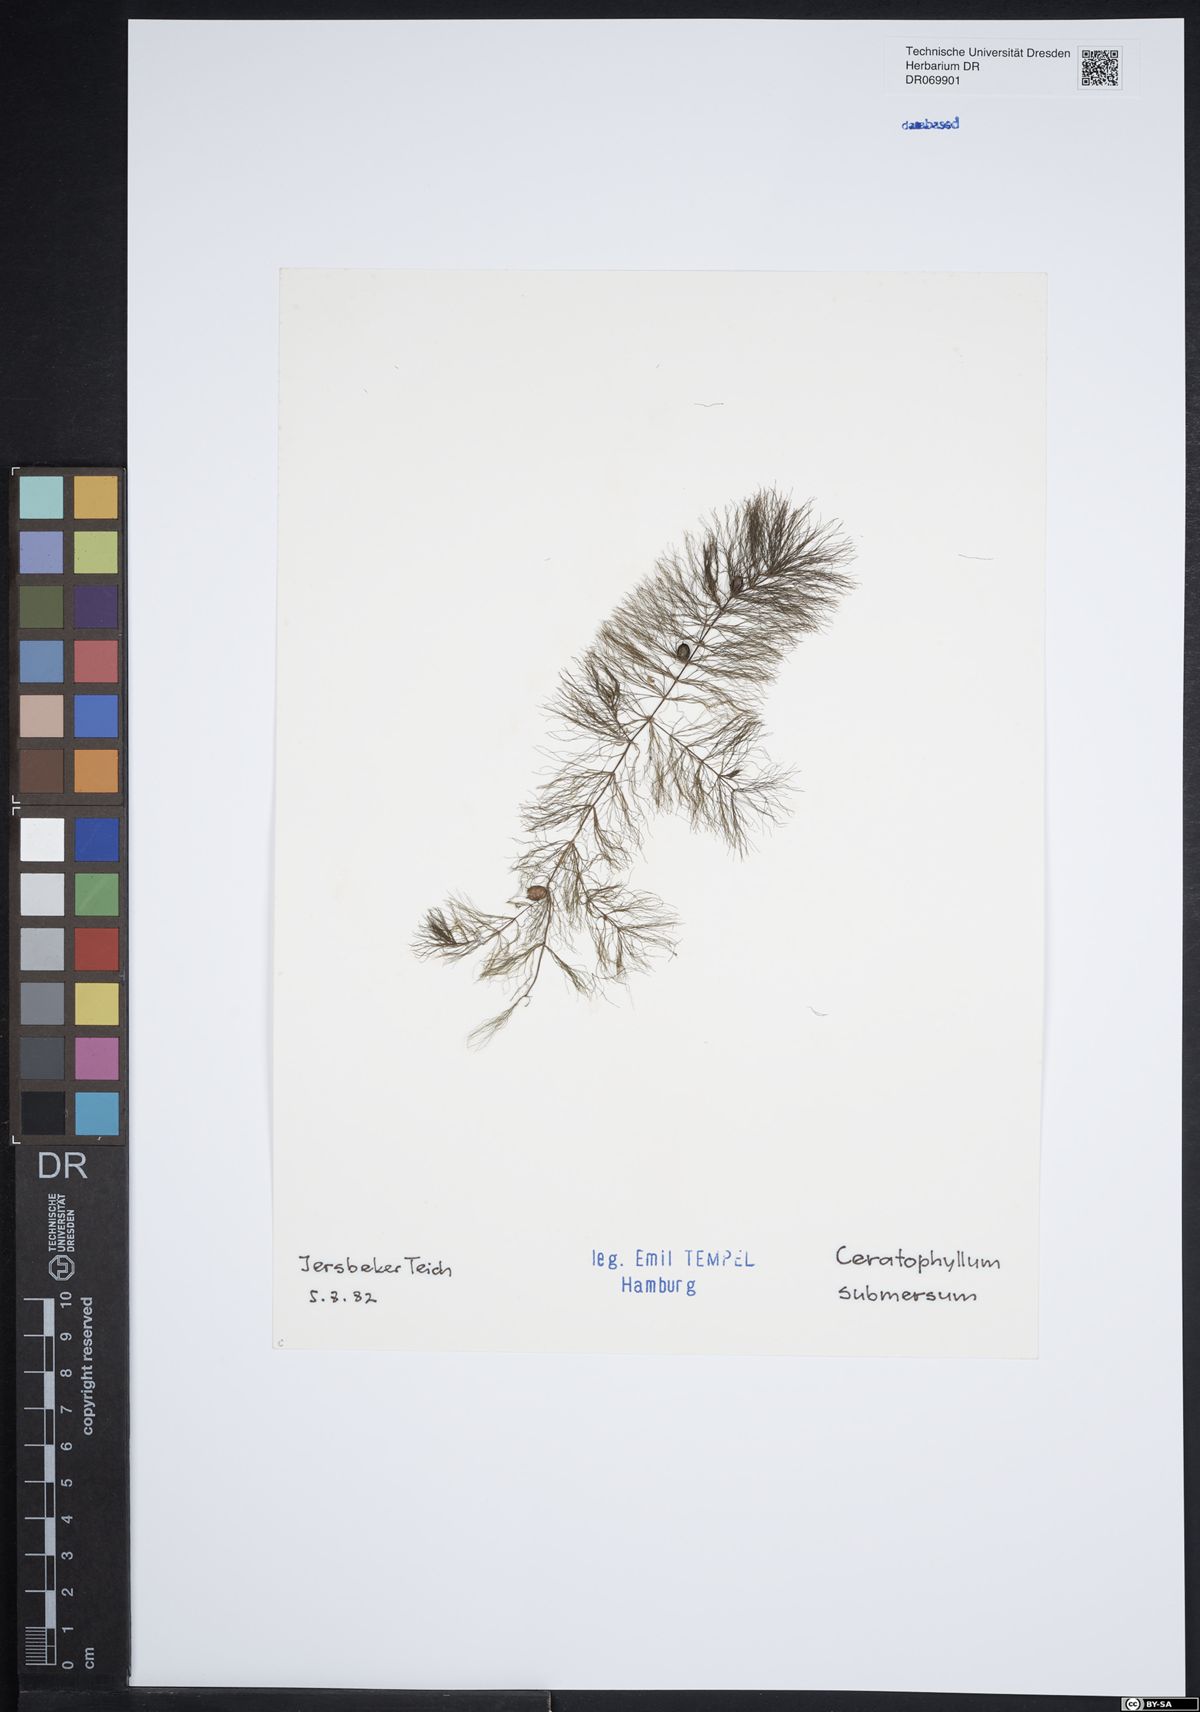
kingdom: Plantae
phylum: Tracheophyta
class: Magnoliopsida
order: Ceratophyllales
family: Ceratophyllaceae
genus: Ceratophyllum
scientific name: Ceratophyllum submersum
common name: Soft hornwort
